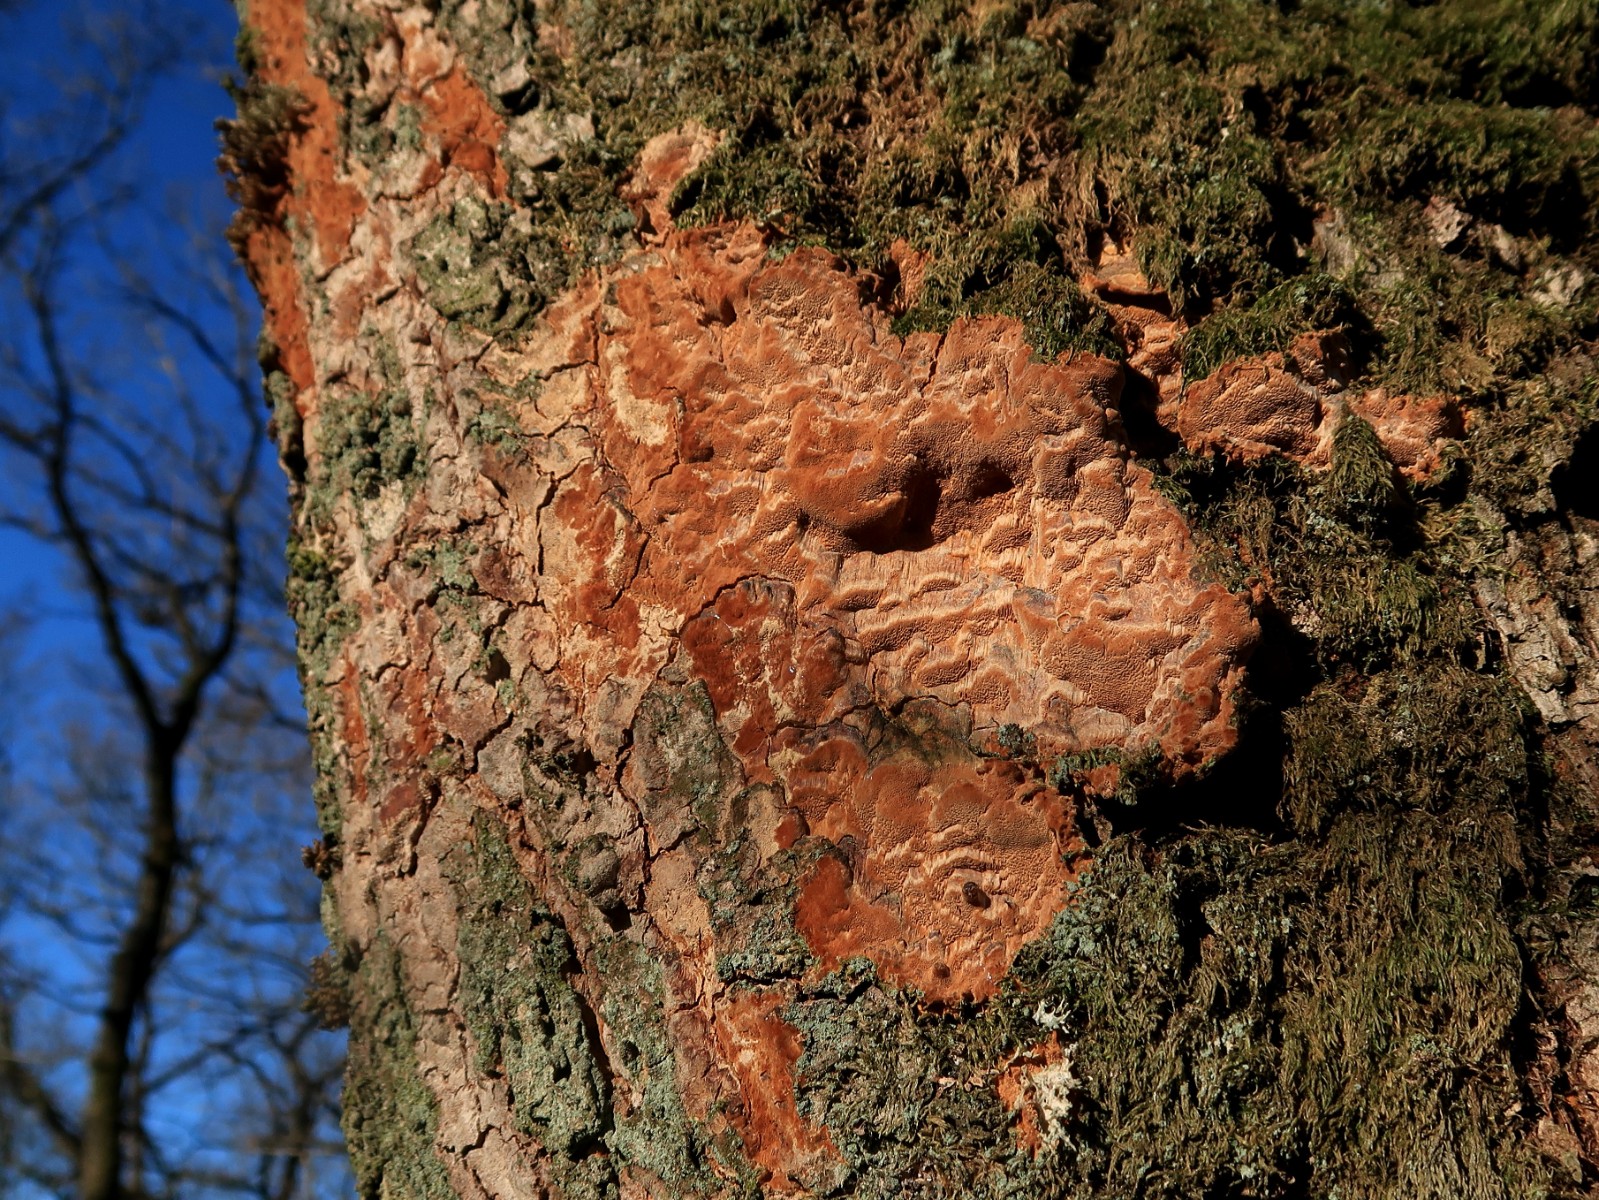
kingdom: Fungi
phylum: Basidiomycota
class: Agaricomycetes
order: Hymenochaetales
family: Hymenochaetaceae
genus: Fuscoporia
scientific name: Fuscoporia ferrea
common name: skorpe-ildporesvamp
